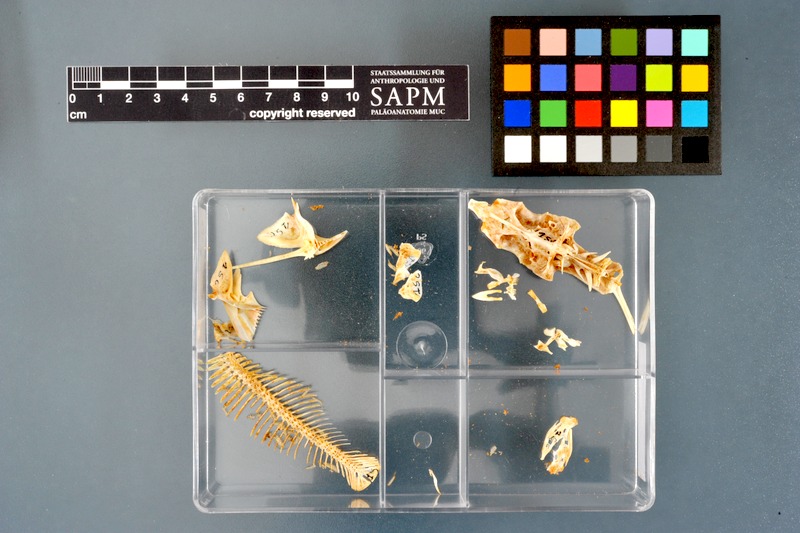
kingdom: Animalia
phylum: Chordata
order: Siluriformes
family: Mochokidae
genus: Synodontis
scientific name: Synodontis clarias
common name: Squeaker
